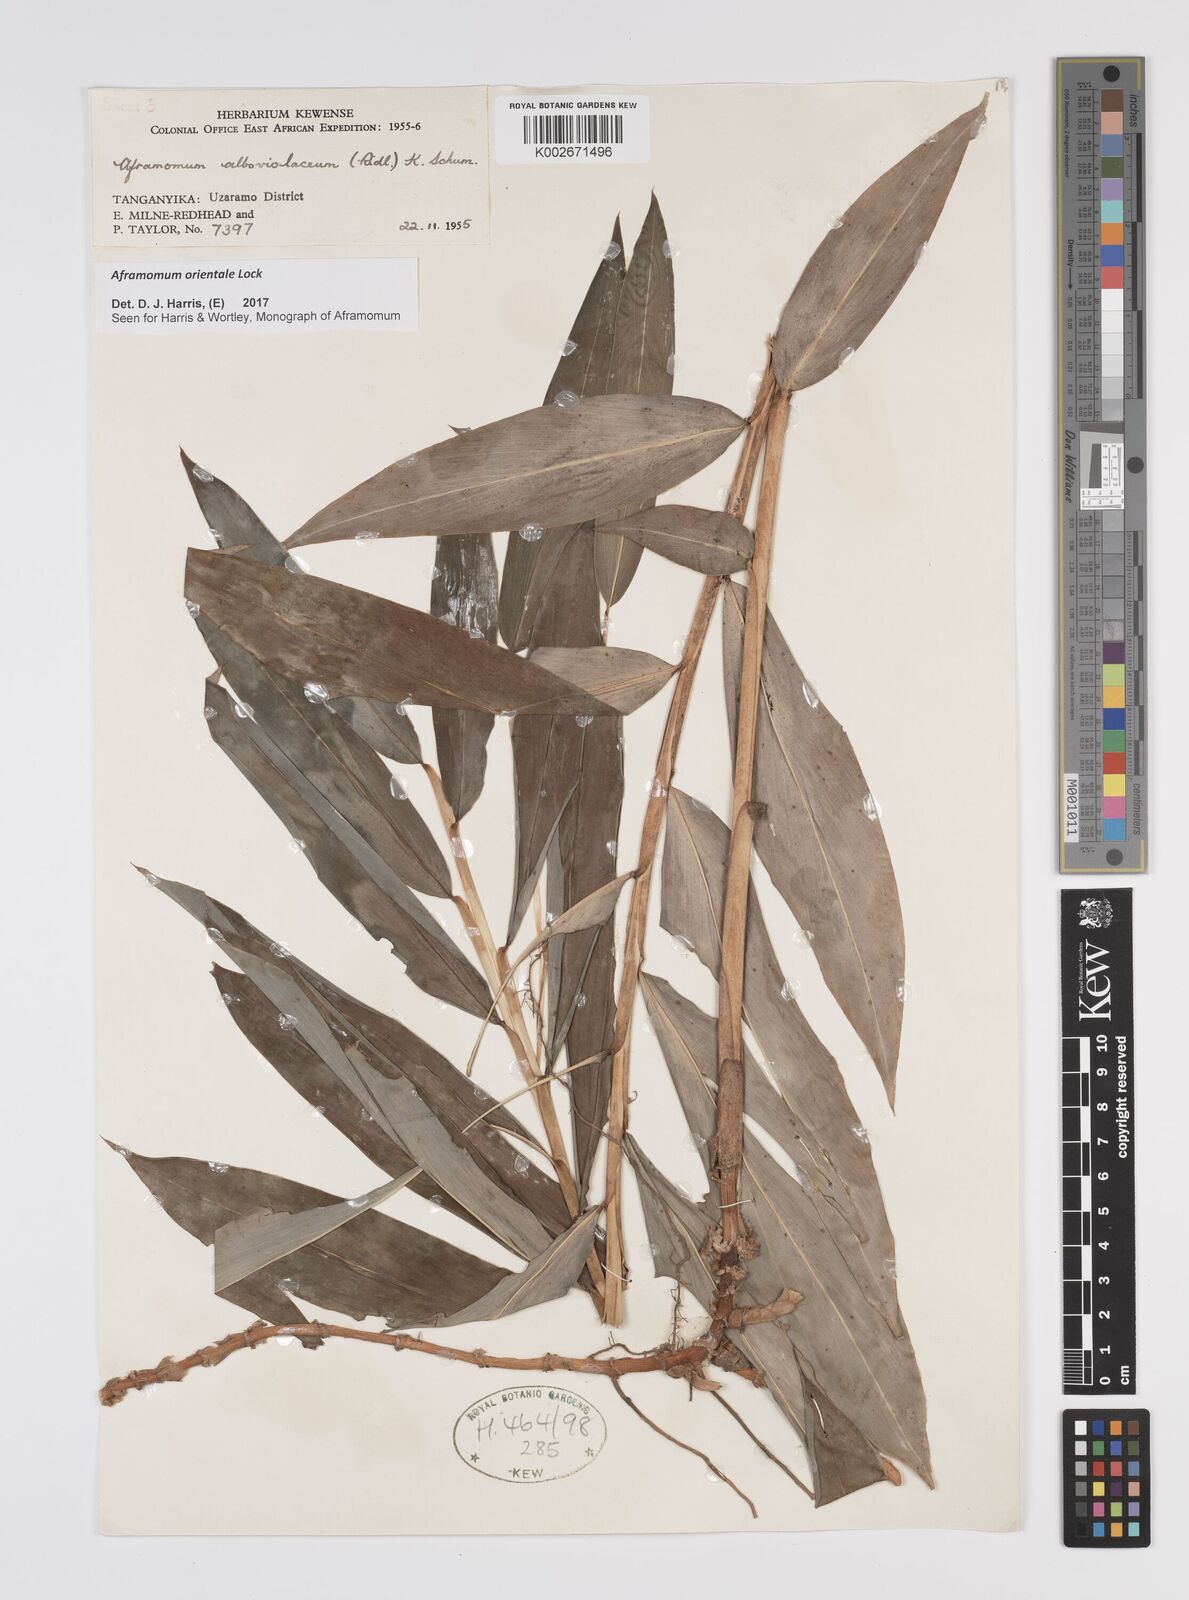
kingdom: Plantae
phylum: Tracheophyta
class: Liliopsida
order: Zingiberales
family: Zingiberaceae
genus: Aframomum
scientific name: Aframomum orientale
